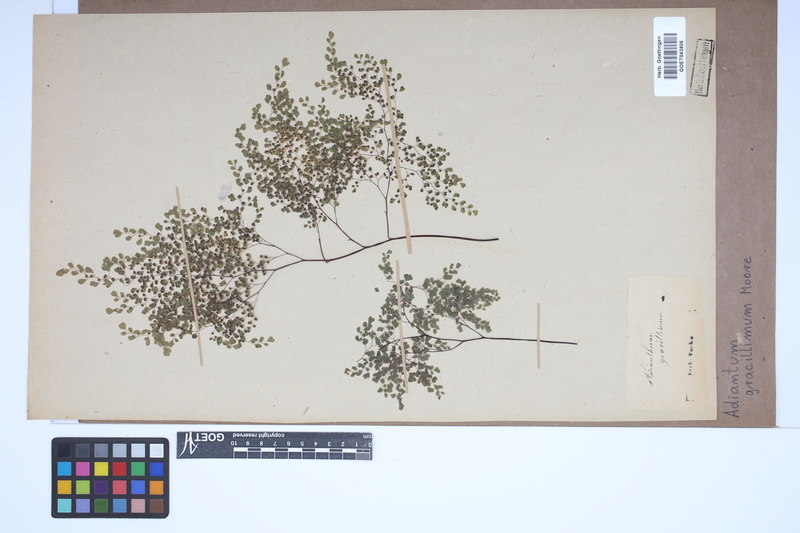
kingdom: Plantae
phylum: Tracheophyta
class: Polypodiopsida
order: Polypodiales
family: Pteridaceae
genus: Adiantum
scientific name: Adiantum gracillimum
